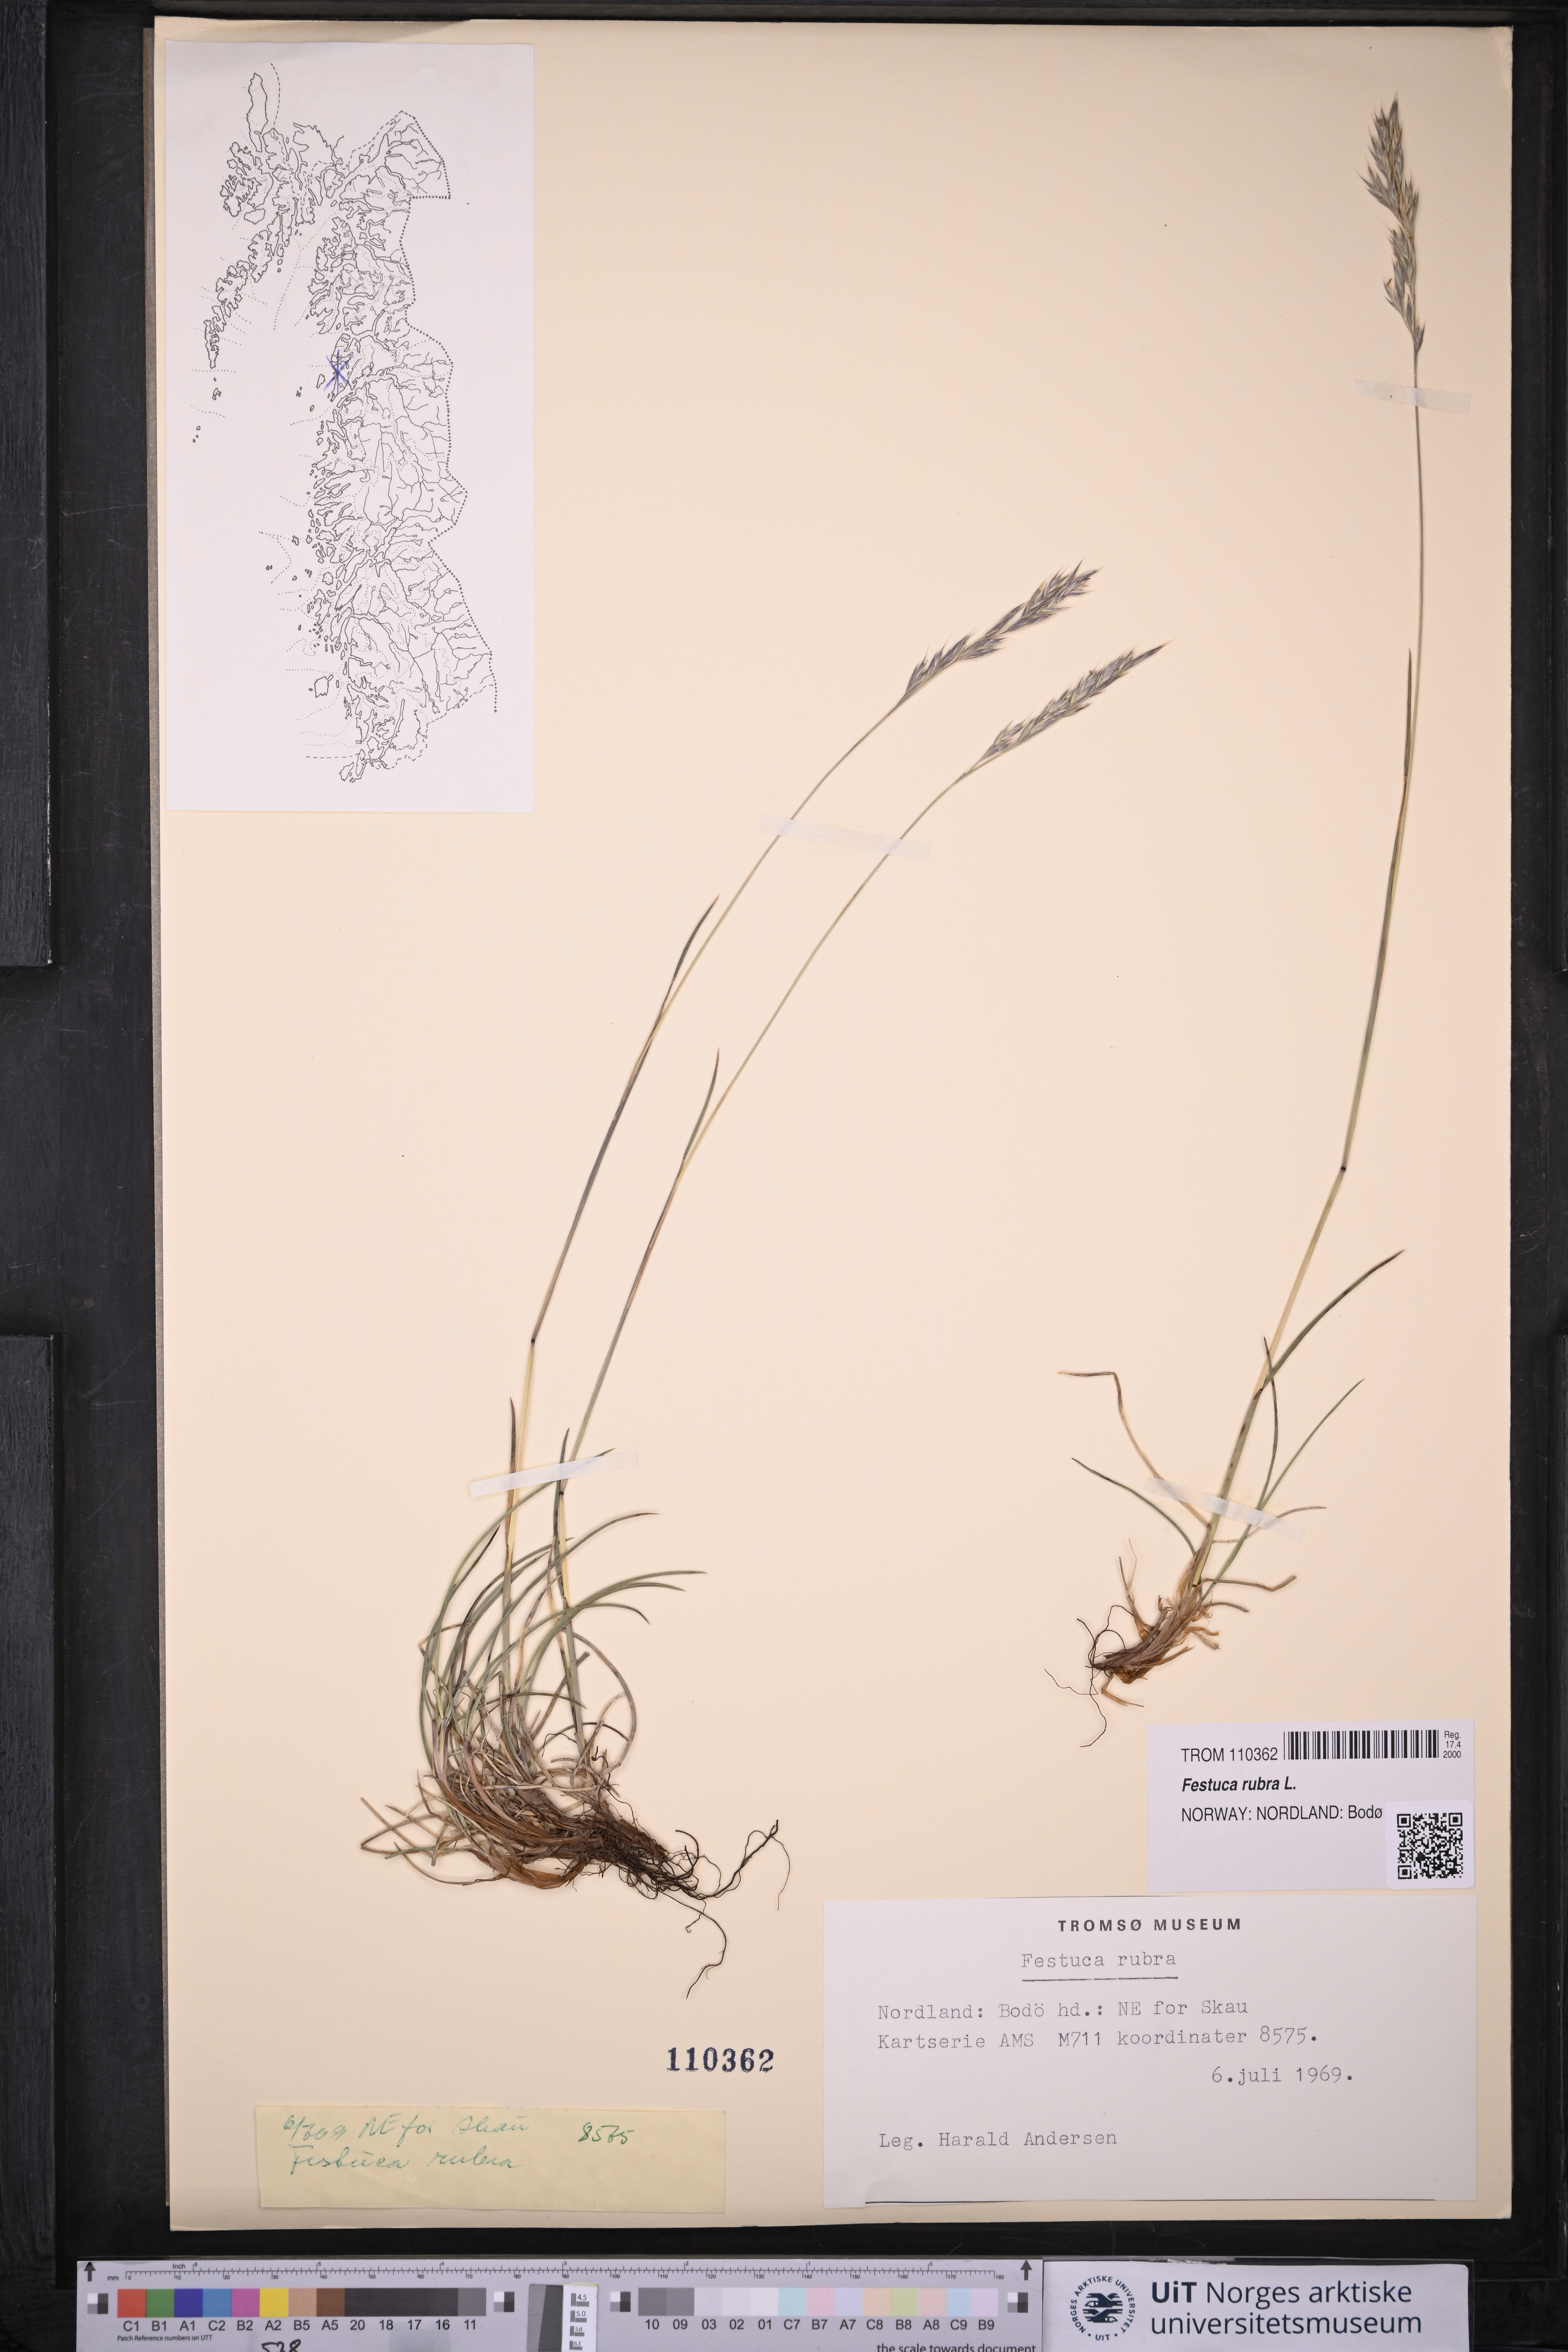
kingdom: Plantae
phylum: Tracheophyta
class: Liliopsida
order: Poales
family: Poaceae
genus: Festuca
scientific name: Festuca rubra
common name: Red fescue
